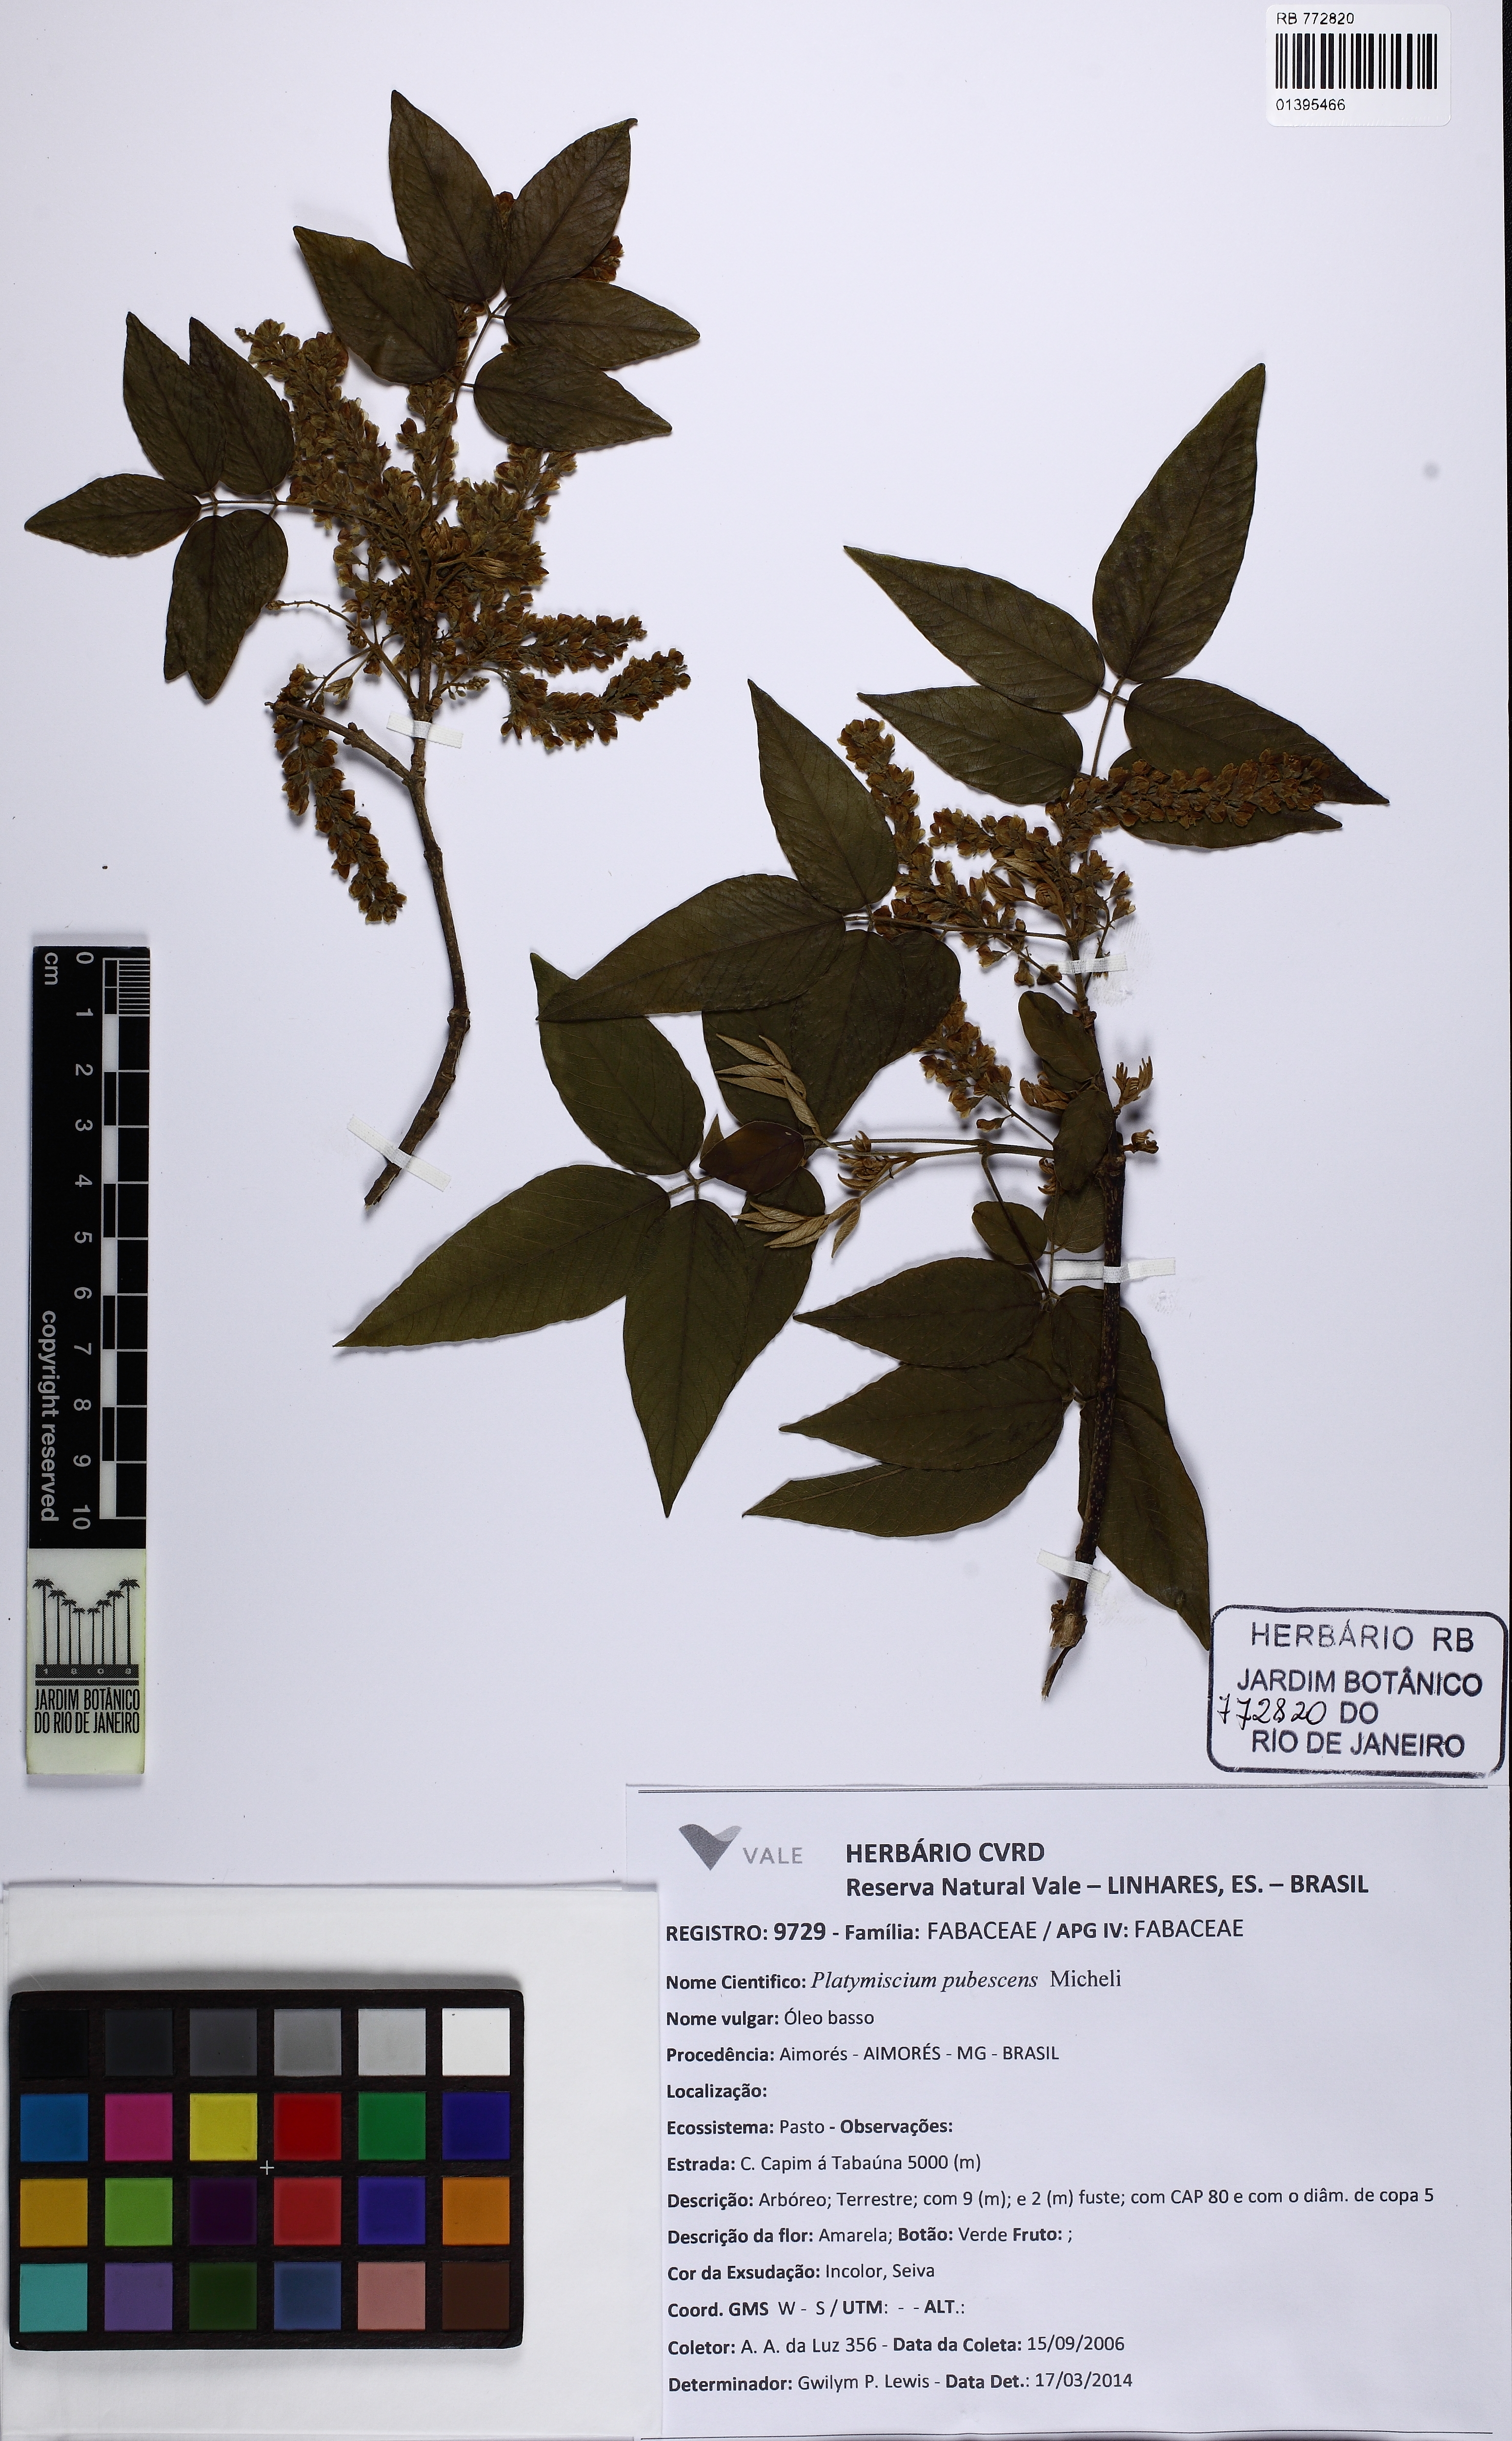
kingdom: Plantae
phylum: Tracheophyta
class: Magnoliopsida
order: Fabales
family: Fabaceae
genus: Platymiscium
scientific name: Platymiscium pubescens
